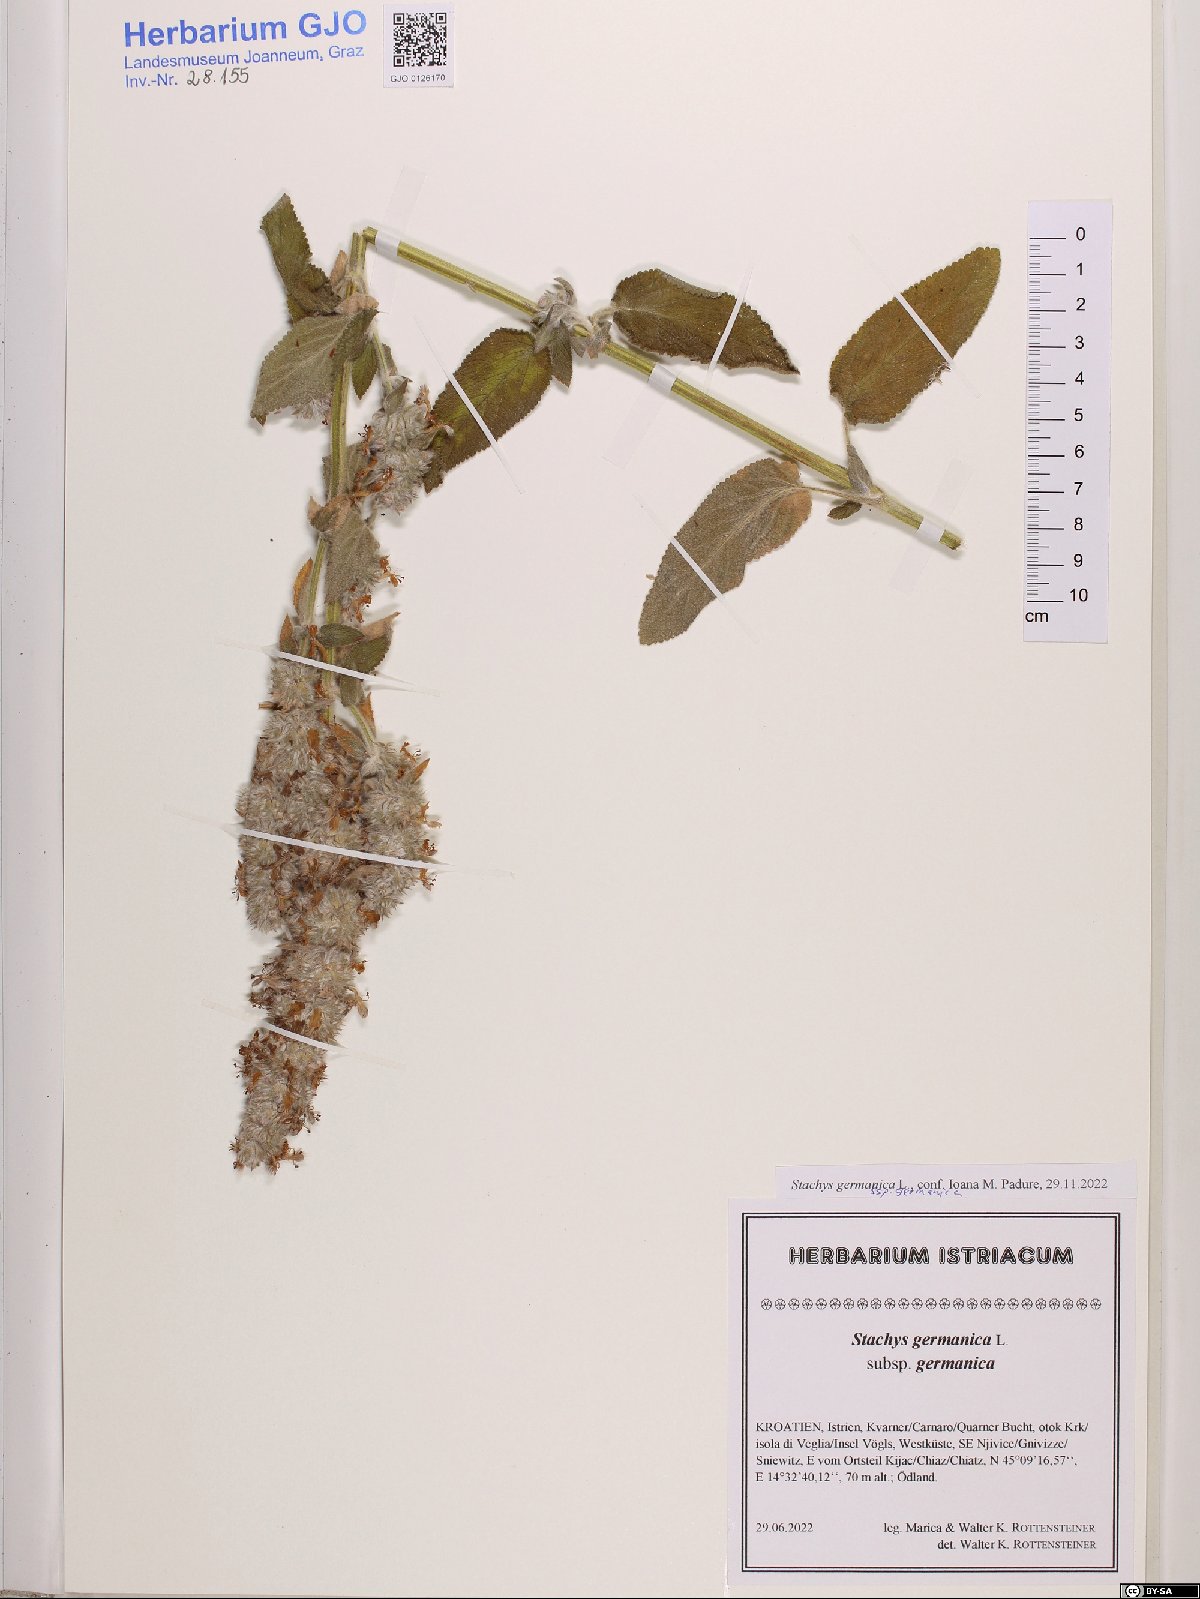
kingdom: Plantae
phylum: Tracheophyta
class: Magnoliopsida
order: Lamiales
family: Lamiaceae
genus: Stachys
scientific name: Stachys germanica
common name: Downy woundwort
